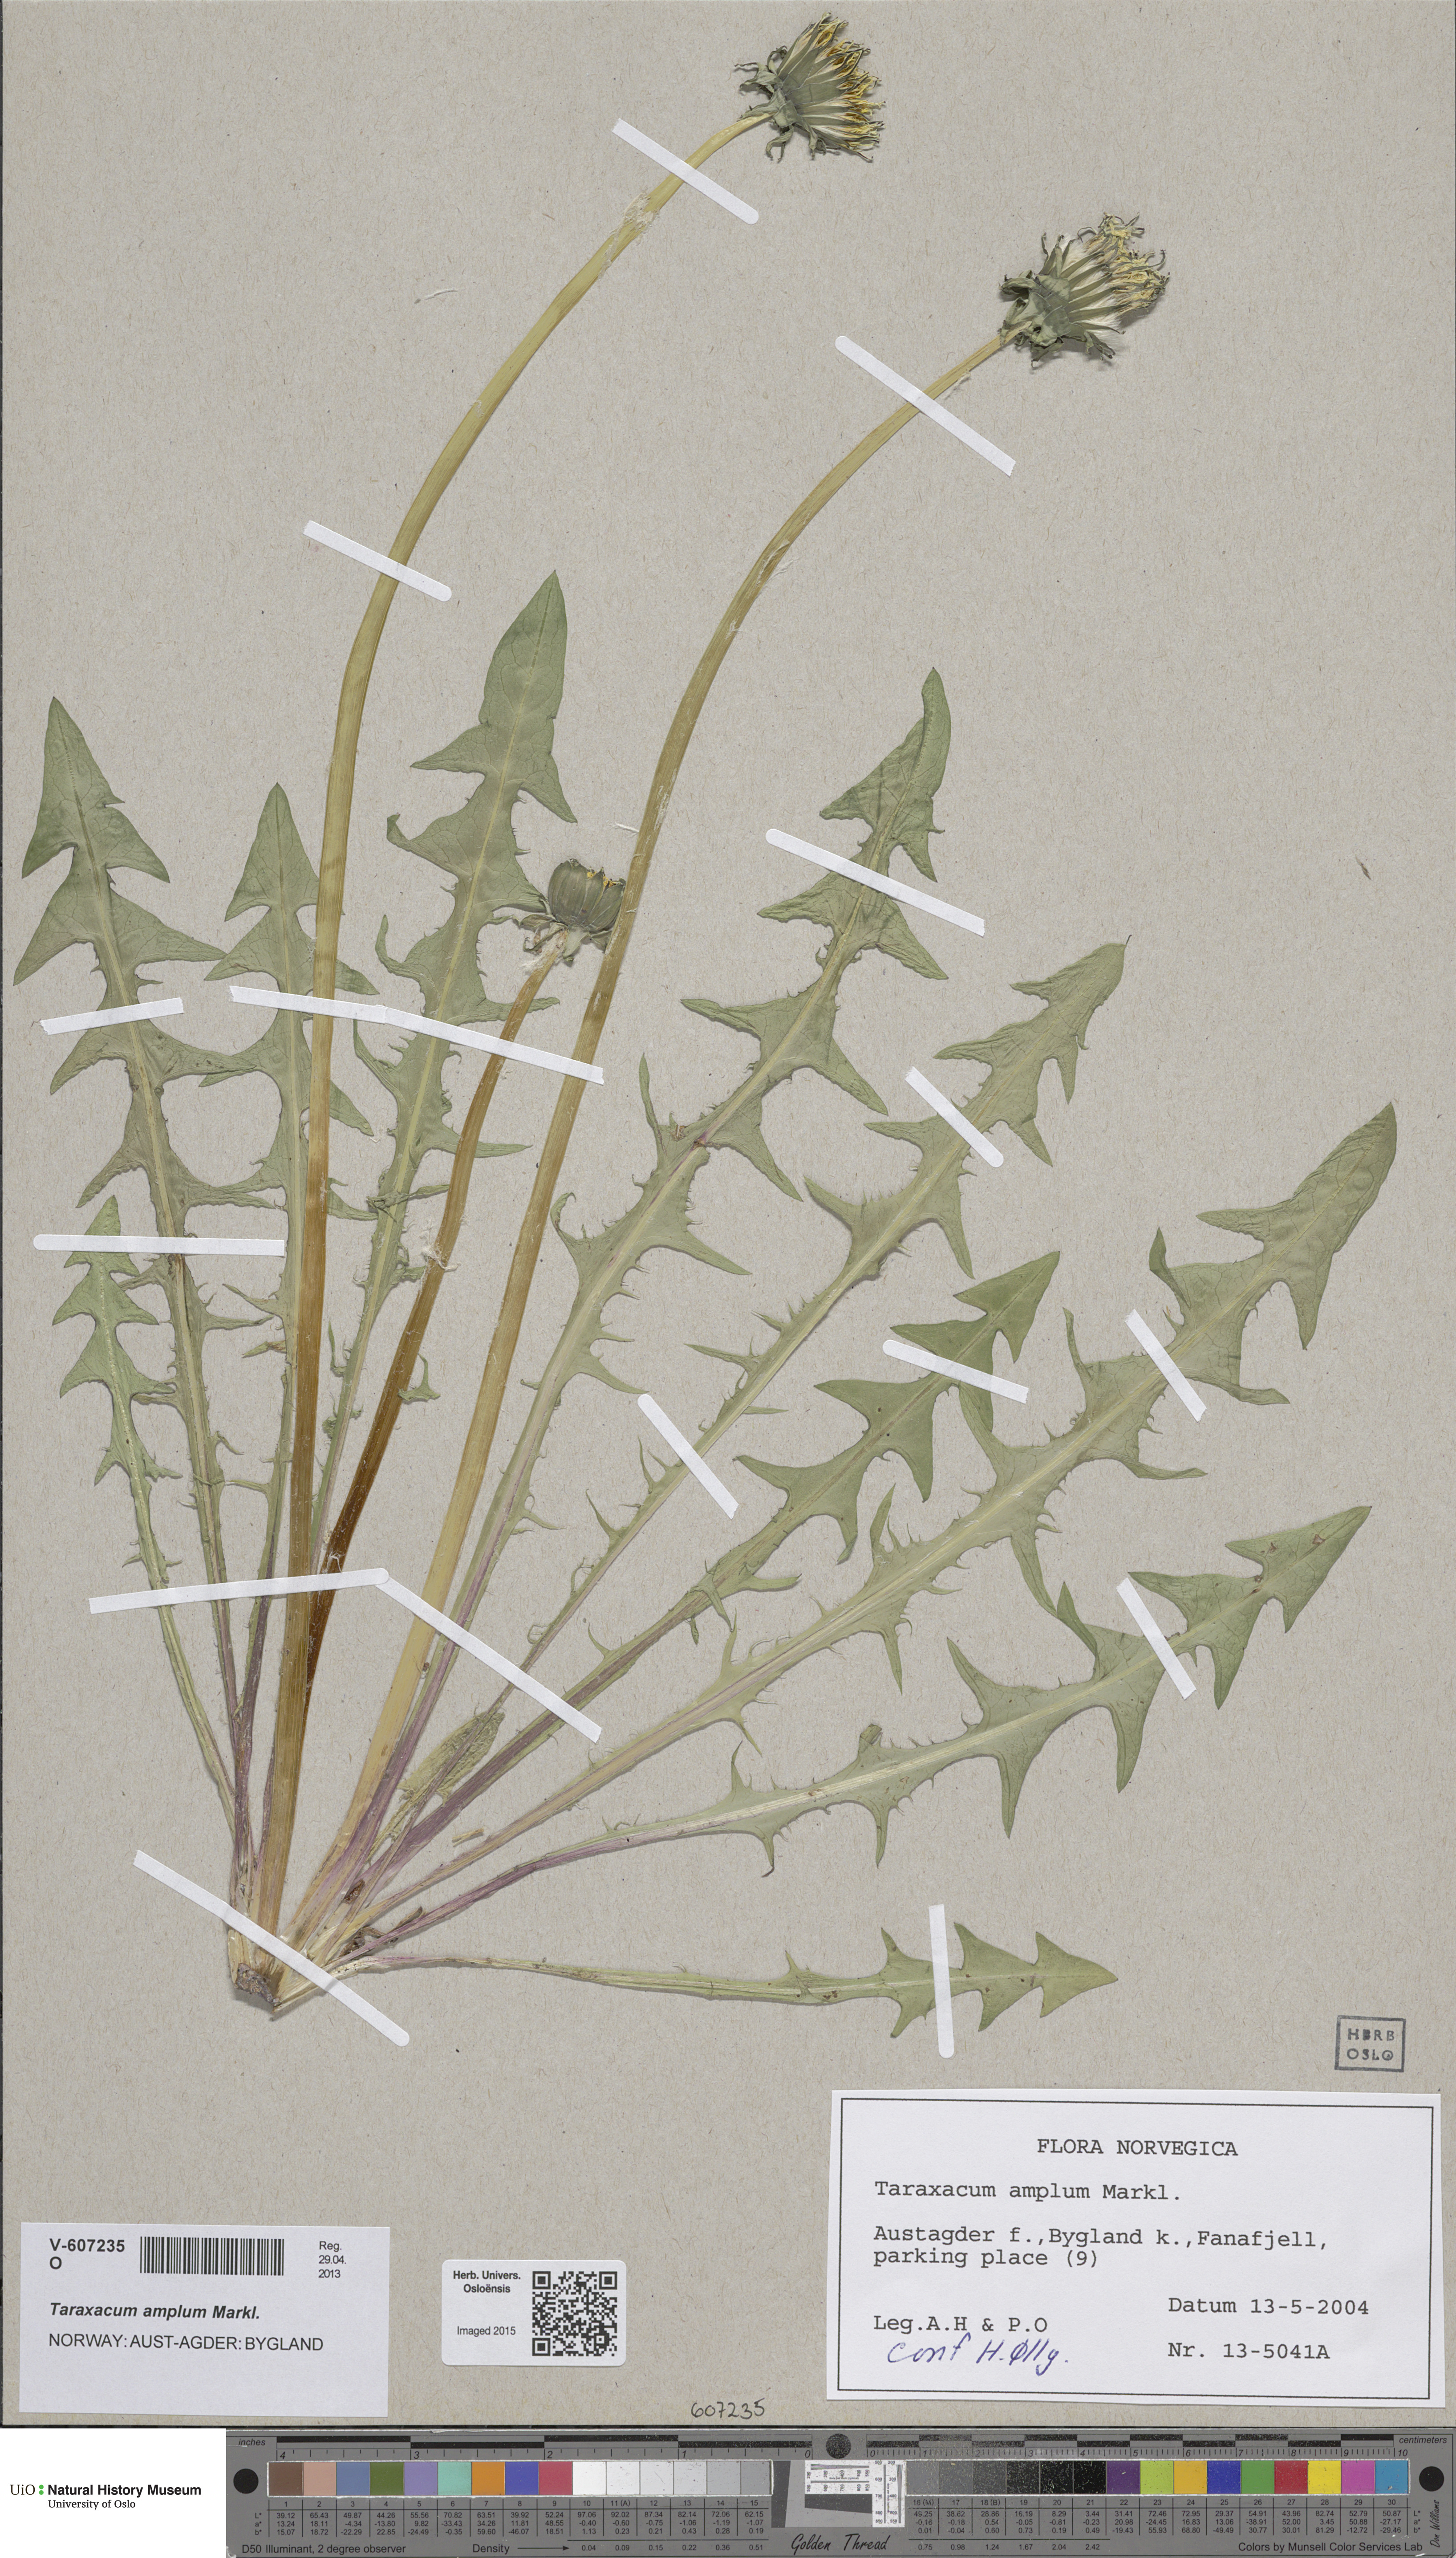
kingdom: Plantae
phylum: Tracheophyta
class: Magnoliopsida
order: Asterales
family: Asteraceae
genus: Taraxacum
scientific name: Taraxacum amplum
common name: Toothed dandelion
